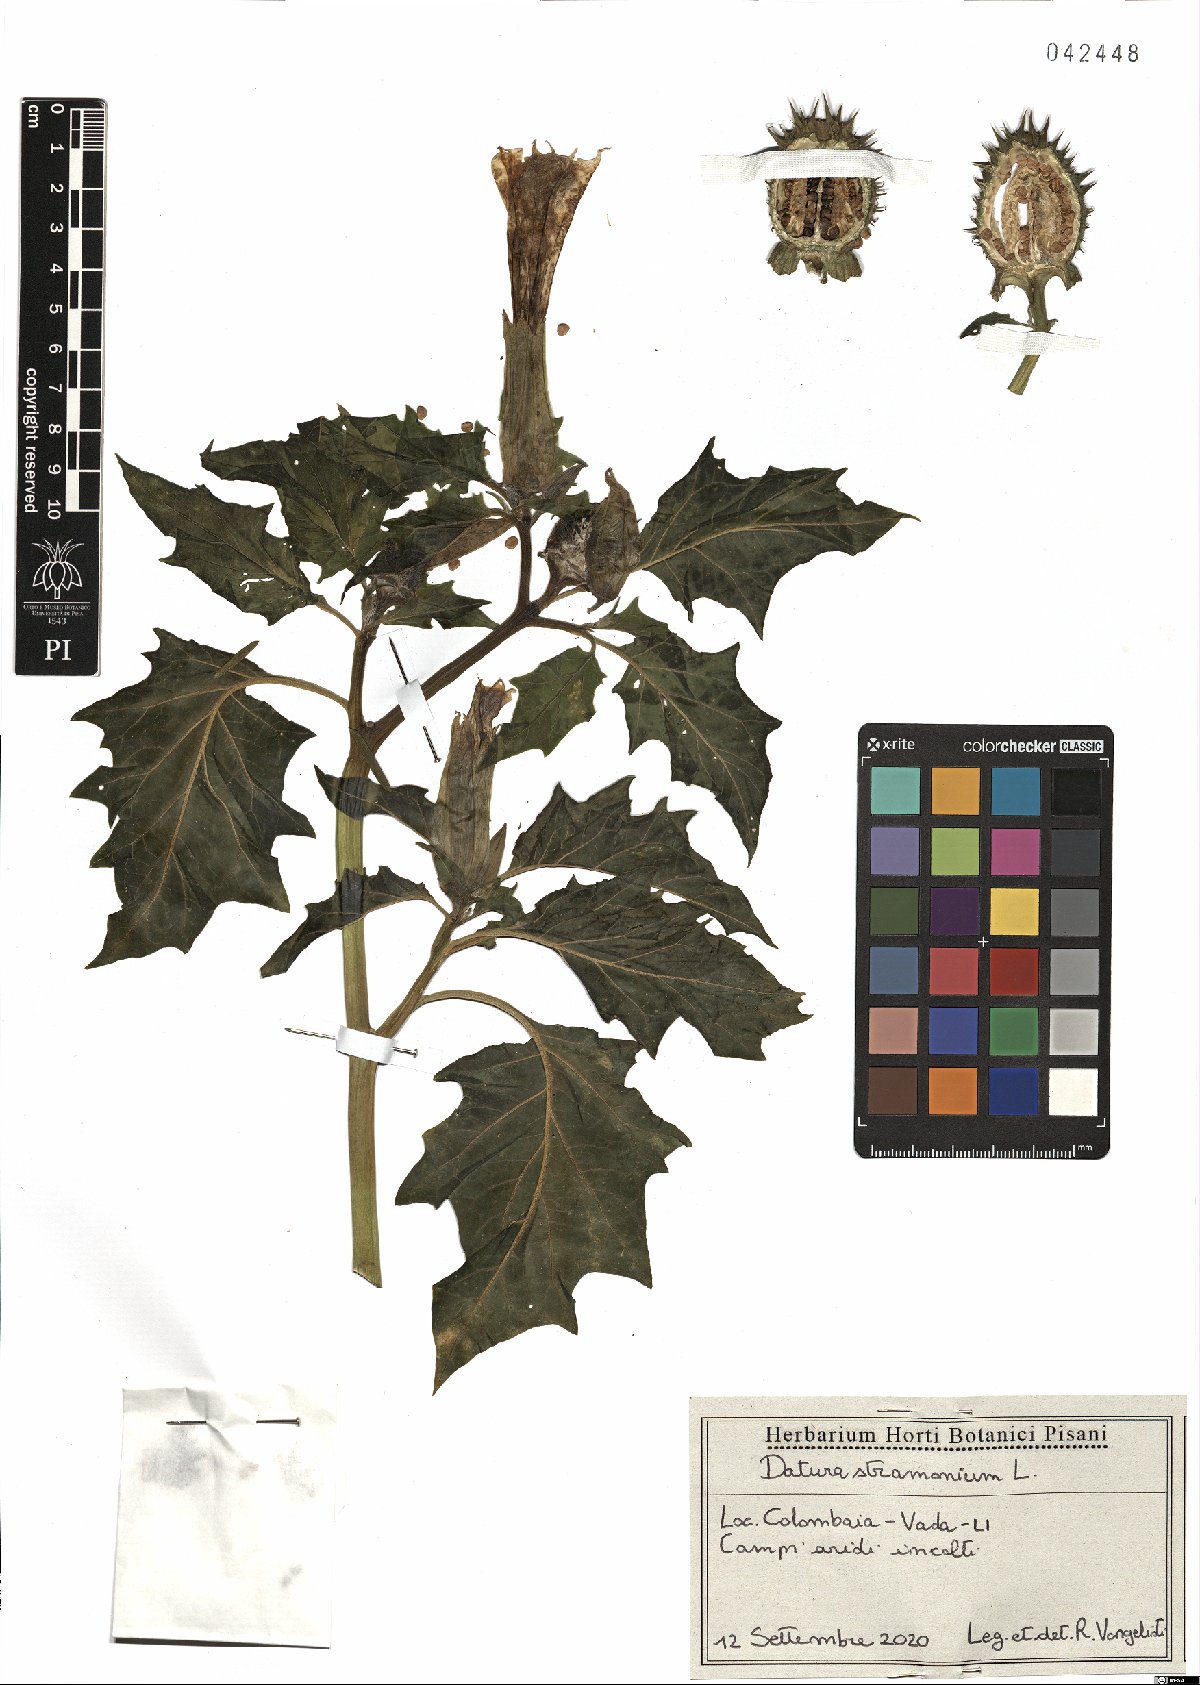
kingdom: Plantae
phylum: Tracheophyta
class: Magnoliopsida
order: Solanales
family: Solanaceae
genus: Datura
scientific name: Datura stramonium
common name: Thorn-apple
